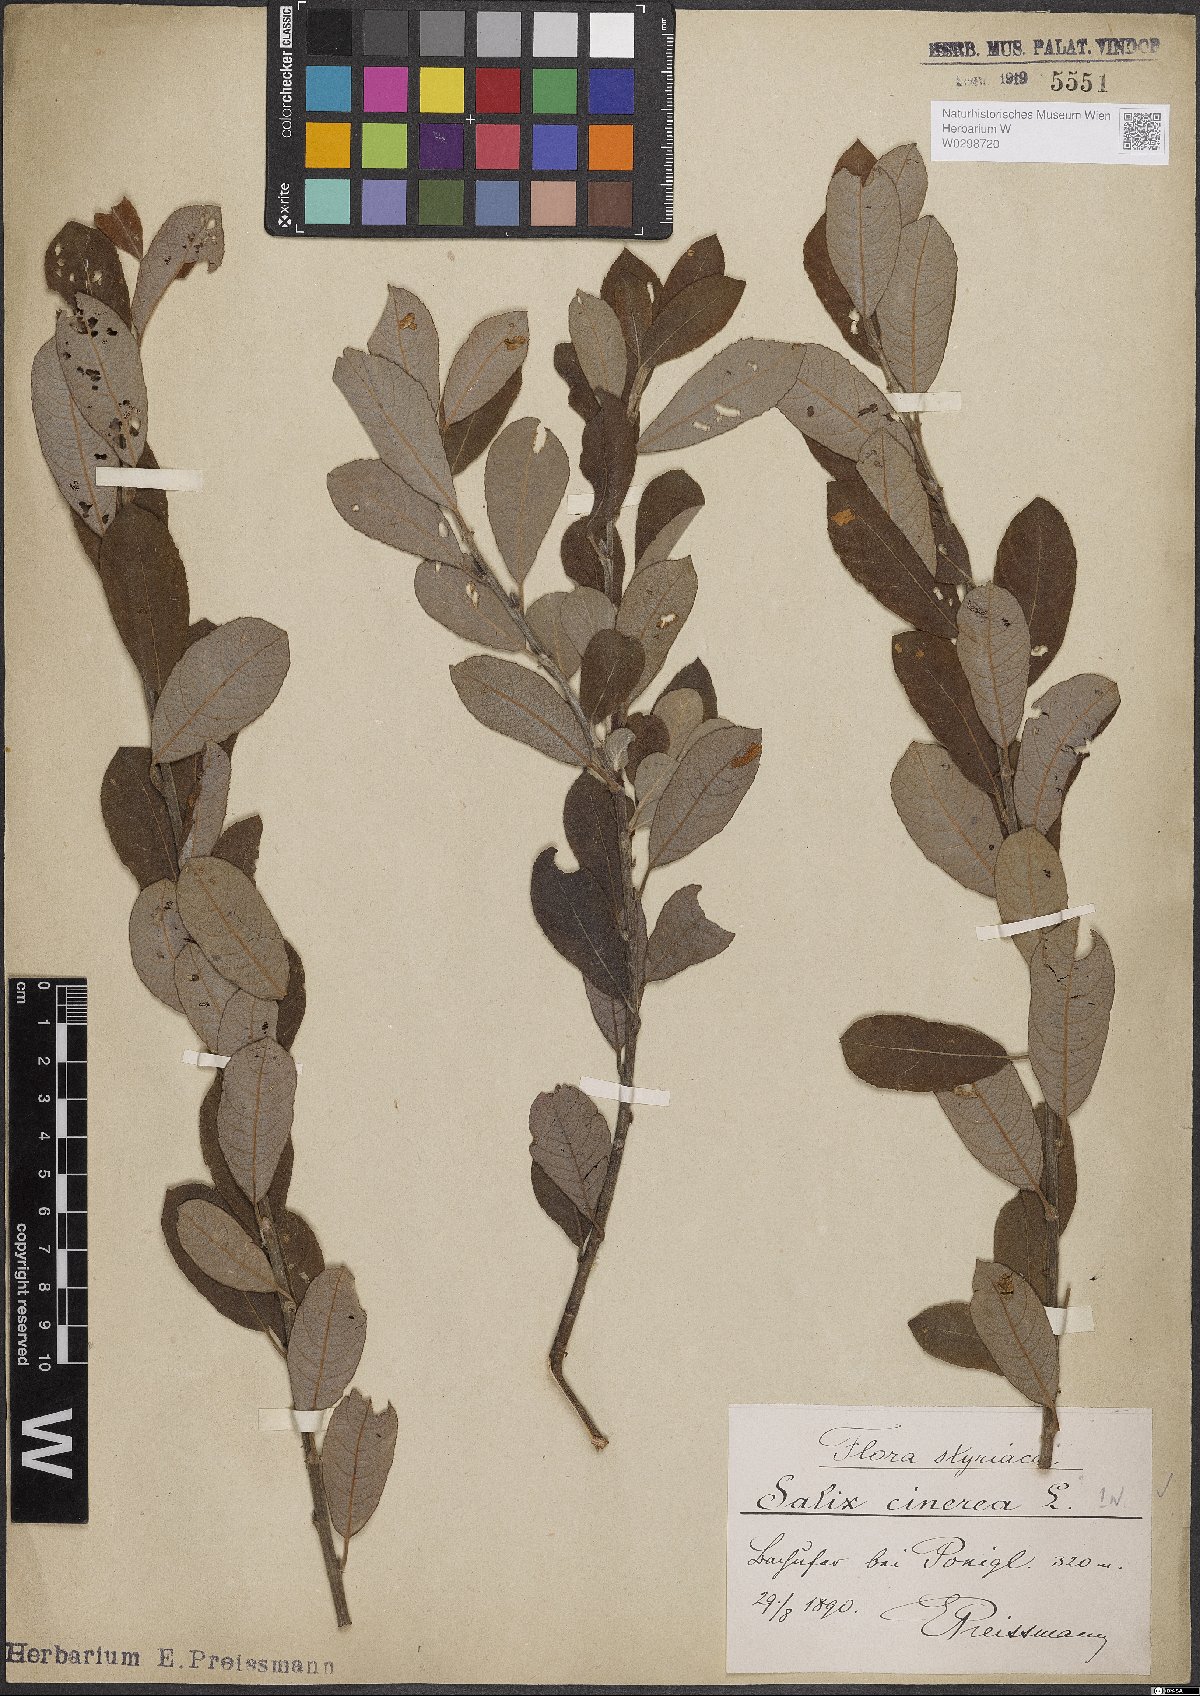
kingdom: Plantae
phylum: Tracheophyta
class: Magnoliopsida
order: Malpighiales
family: Salicaceae
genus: Salix
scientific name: Salix cinerea
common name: Common sallow
